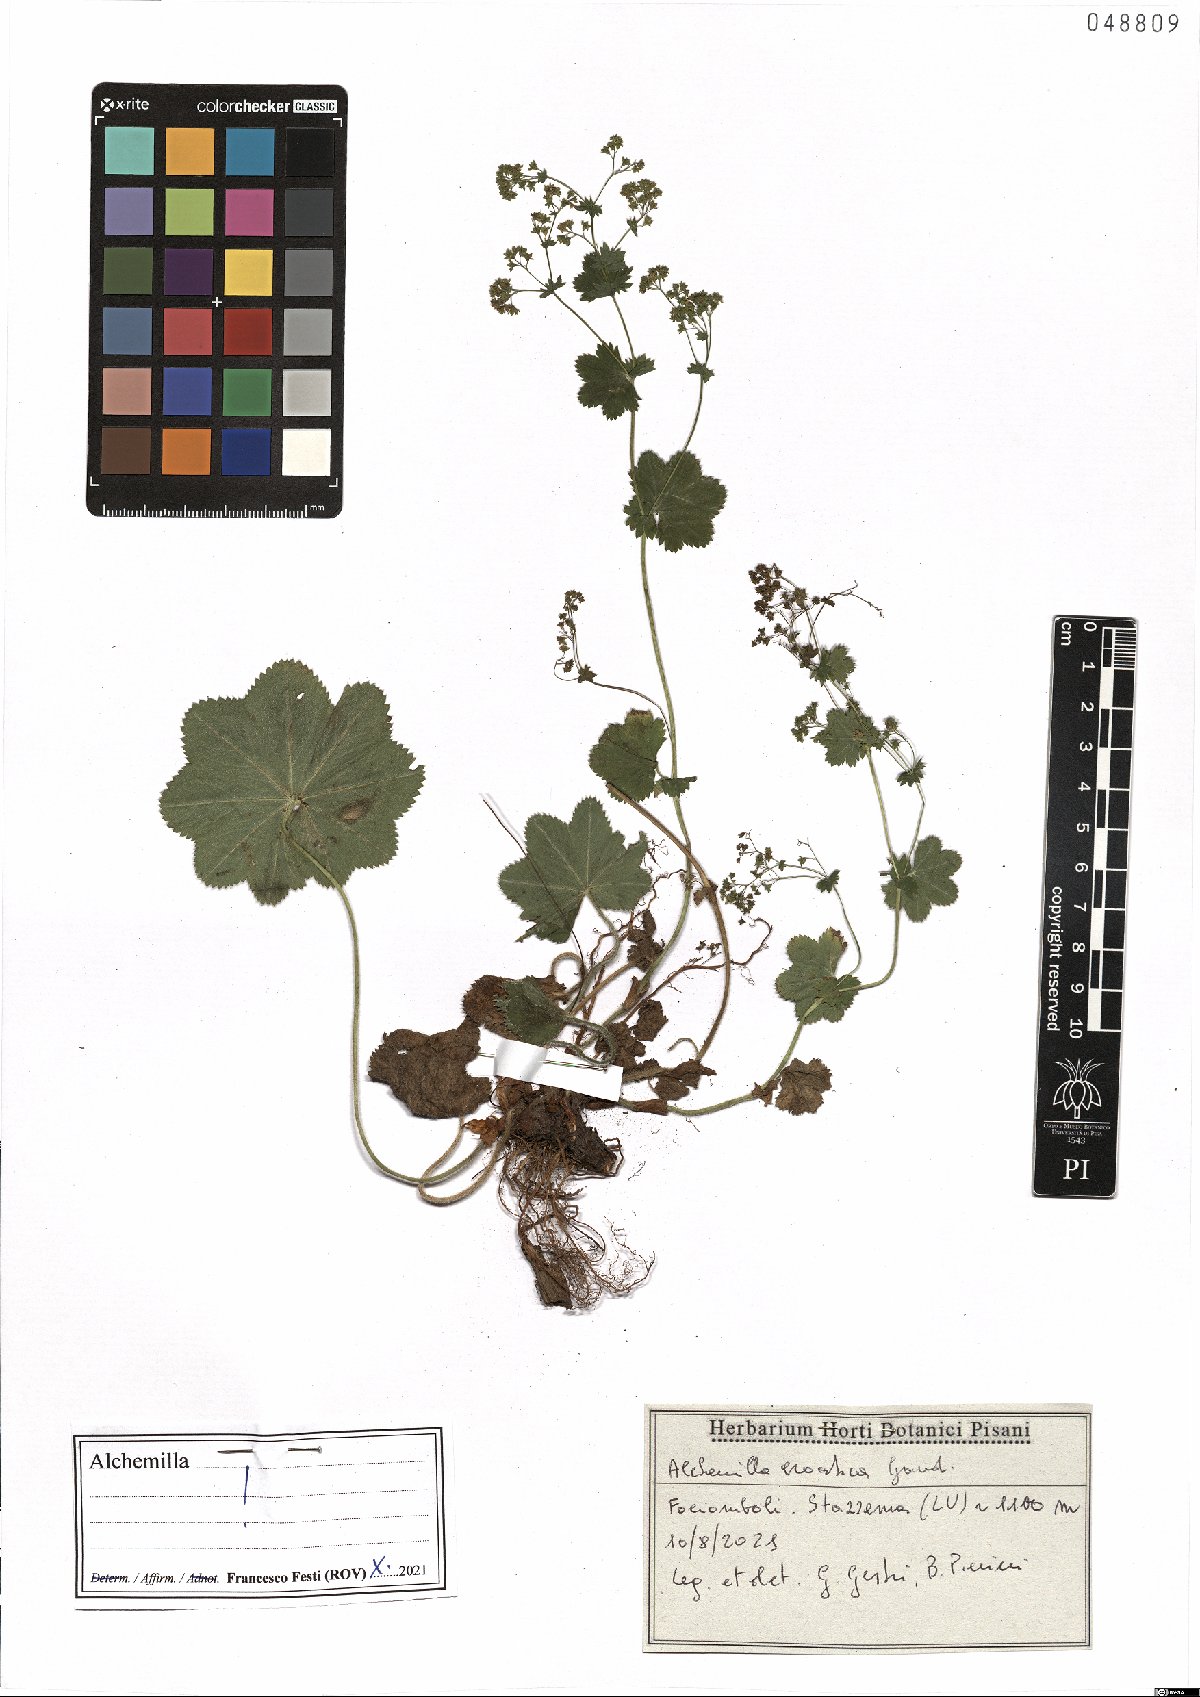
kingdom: Plantae
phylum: Tracheophyta
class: Magnoliopsida
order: Rosales
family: Rosaceae
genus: Alchemilla
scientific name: Alchemilla croatica
